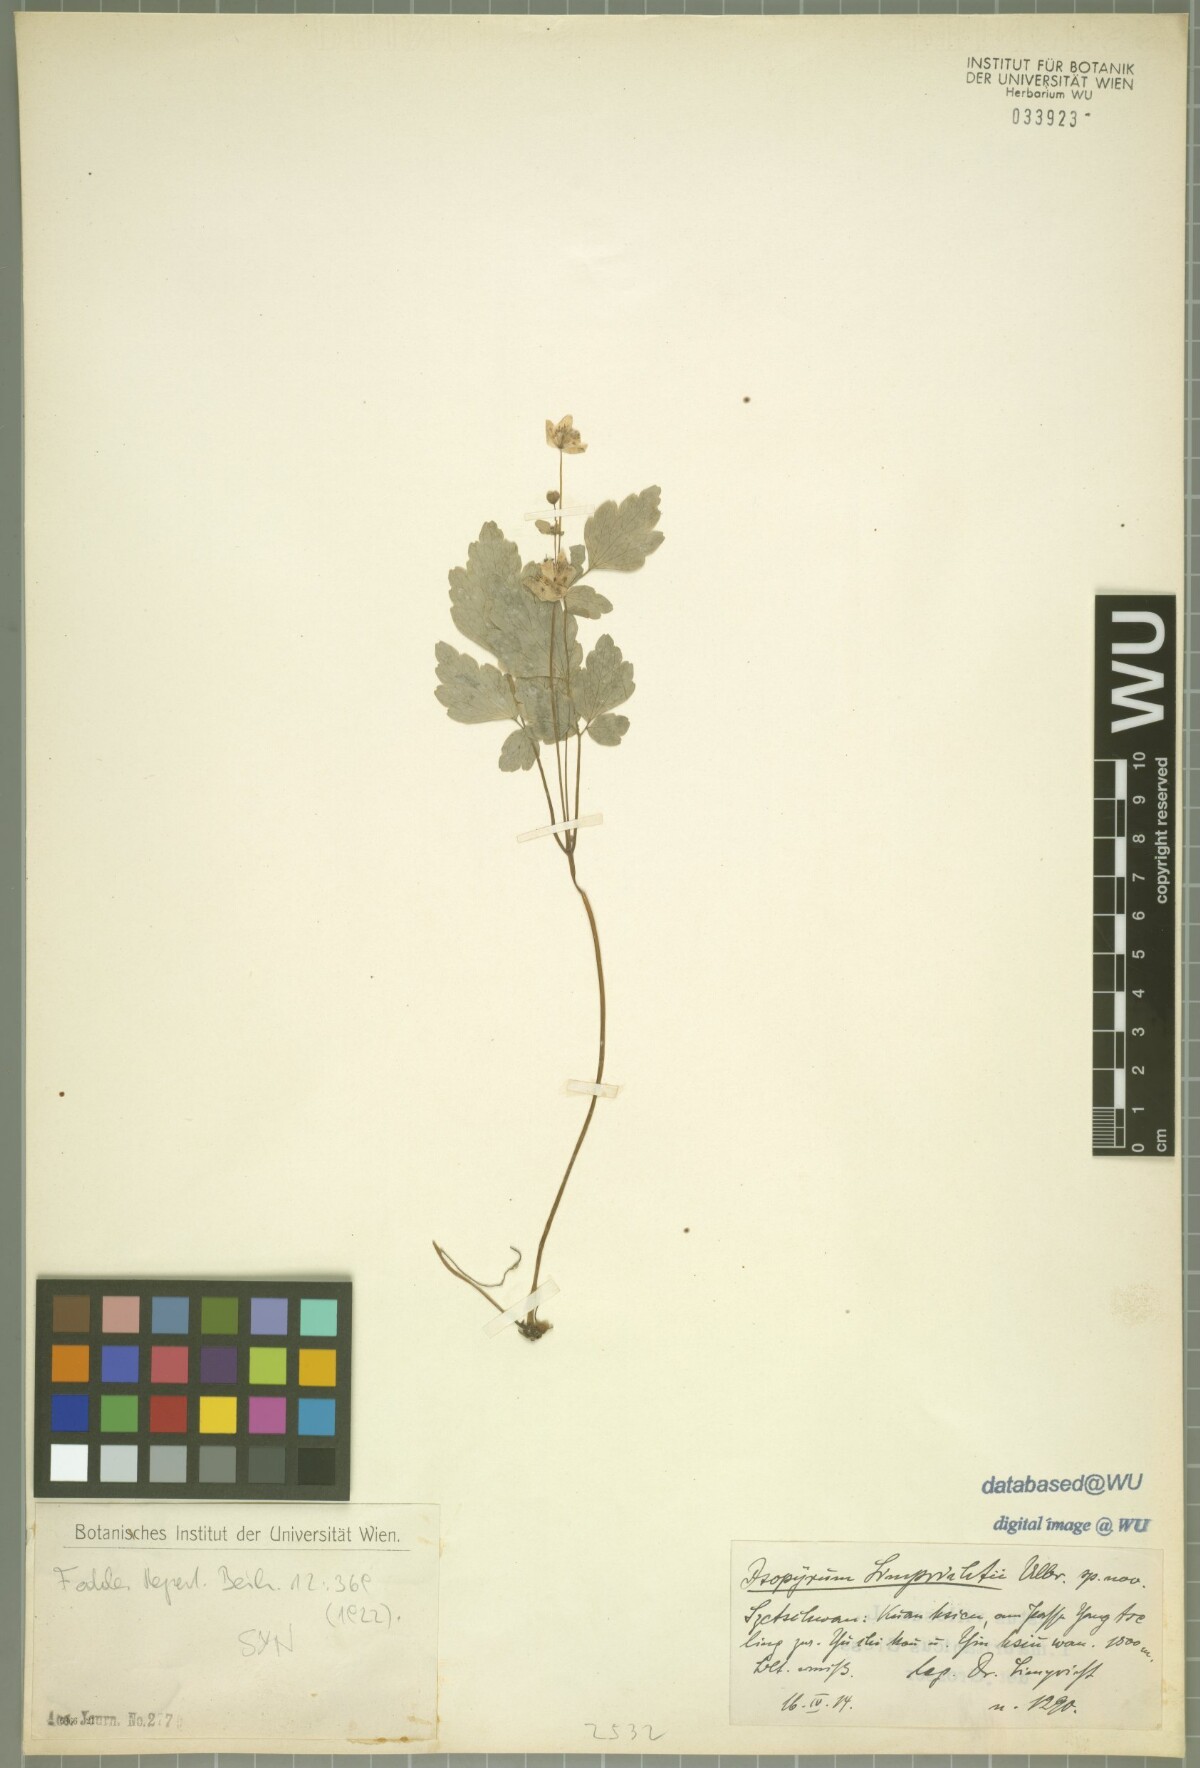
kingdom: Plantae
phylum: Tracheophyta
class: Magnoliopsida
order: Ranunculales
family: Ranunculaceae
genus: Dichocarpum
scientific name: Dichocarpum auriculatum
